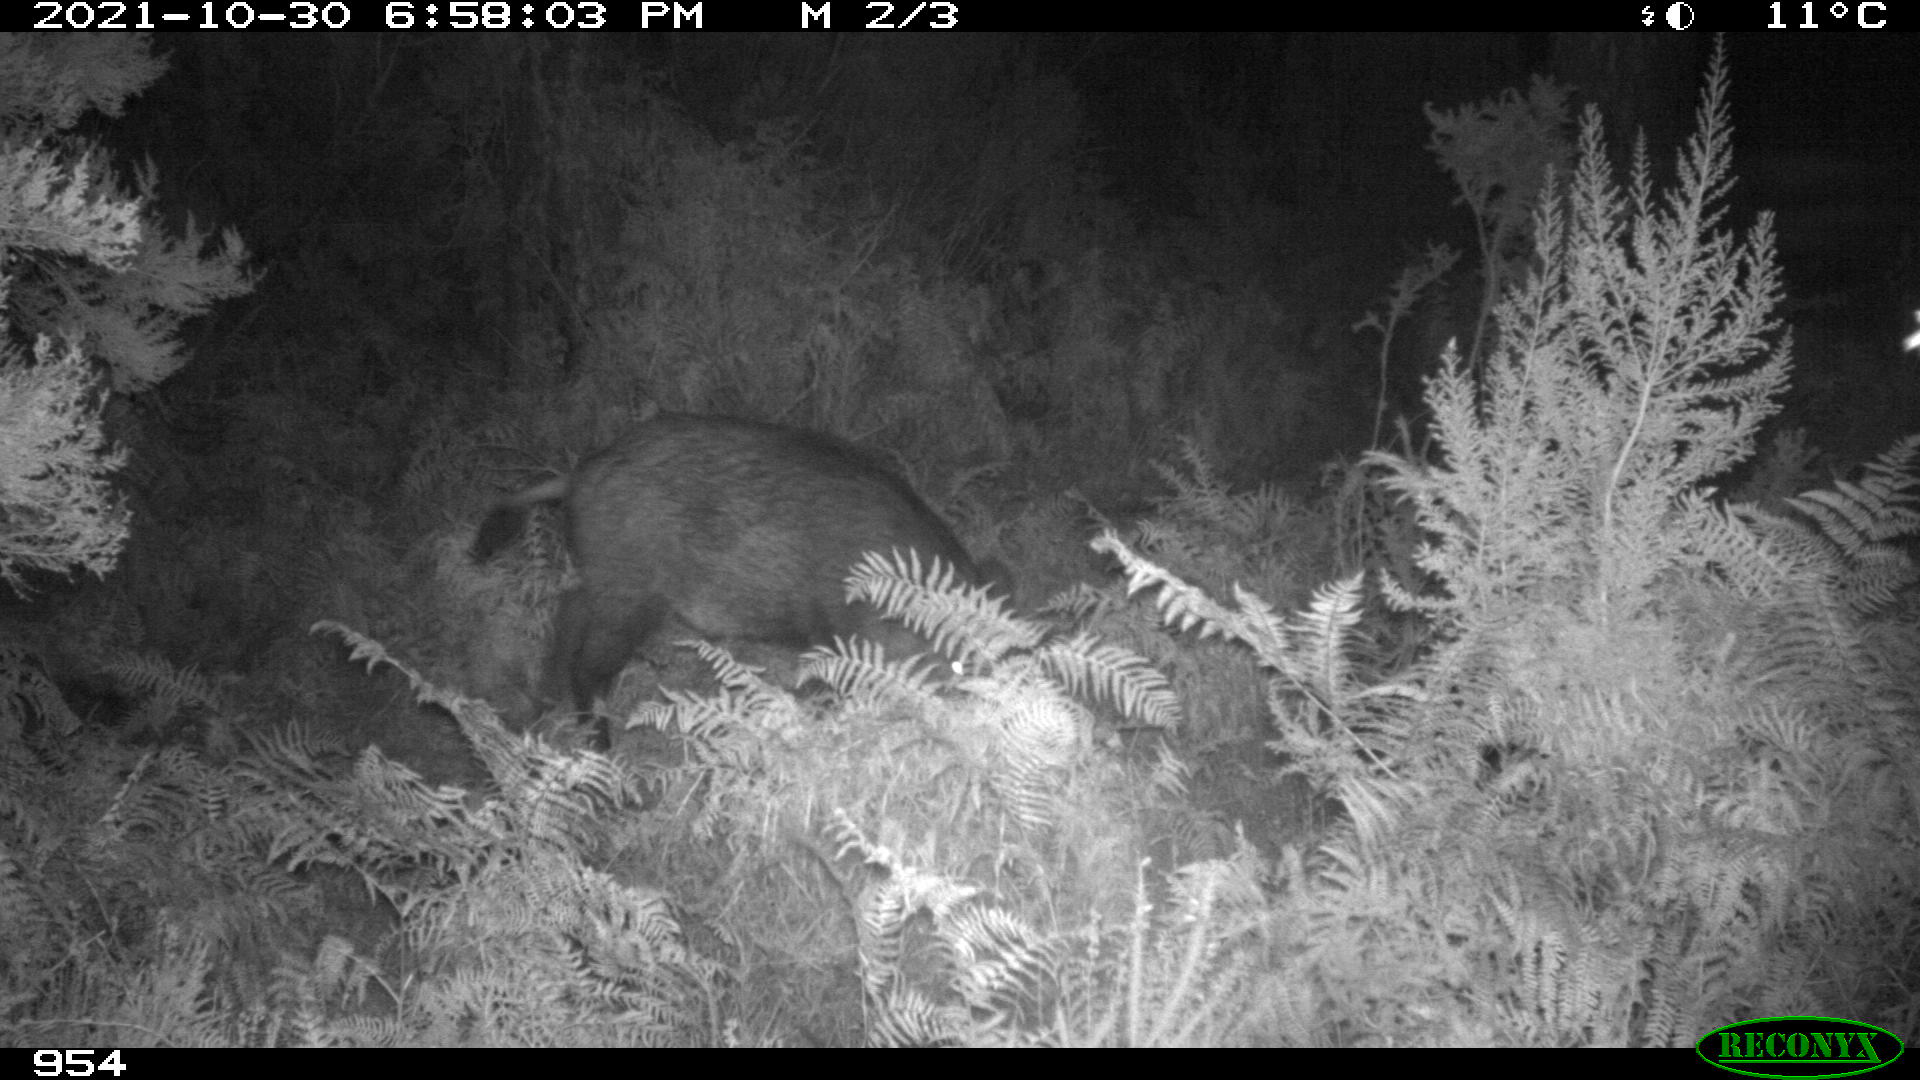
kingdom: Animalia
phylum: Chordata
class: Mammalia
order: Artiodactyla
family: Suidae
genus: Sus
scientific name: Sus scrofa
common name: Wild boar
